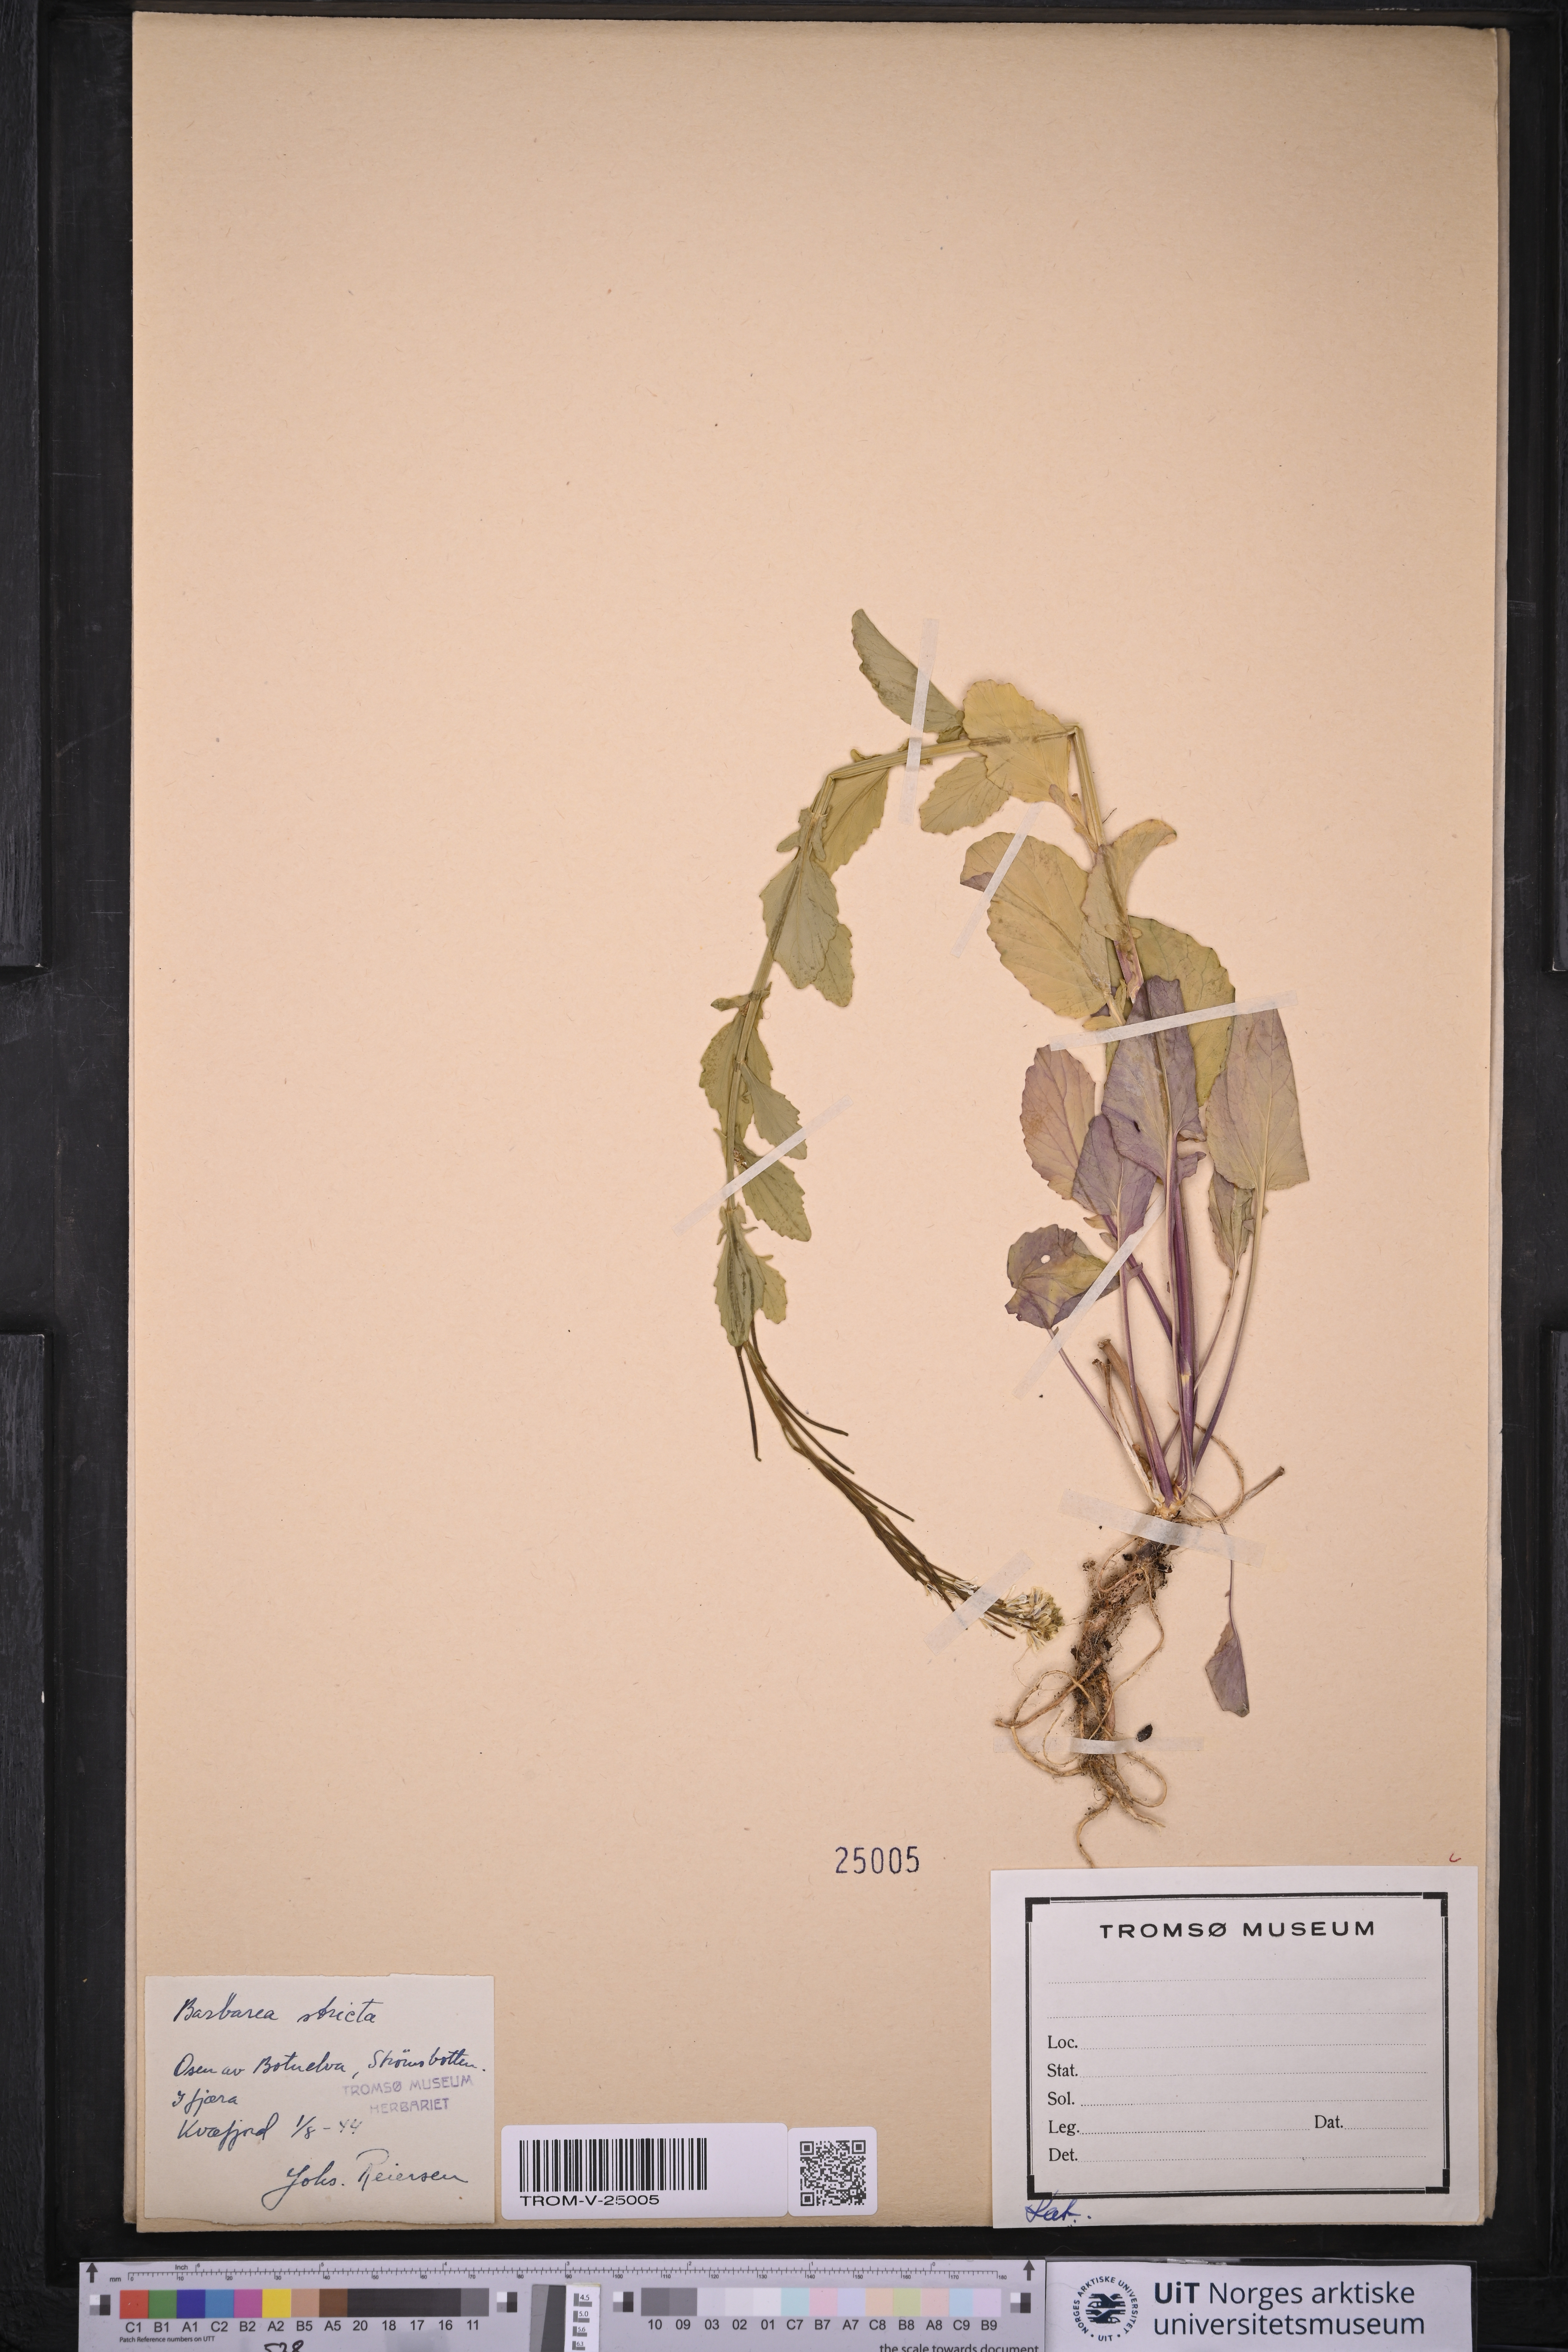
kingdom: Plantae
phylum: Tracheophyta
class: Magnoliopsida
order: Brassicales
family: Brassicaceae
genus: Barbarea
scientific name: Barbarea stricta
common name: Small-flowered winter-cress
